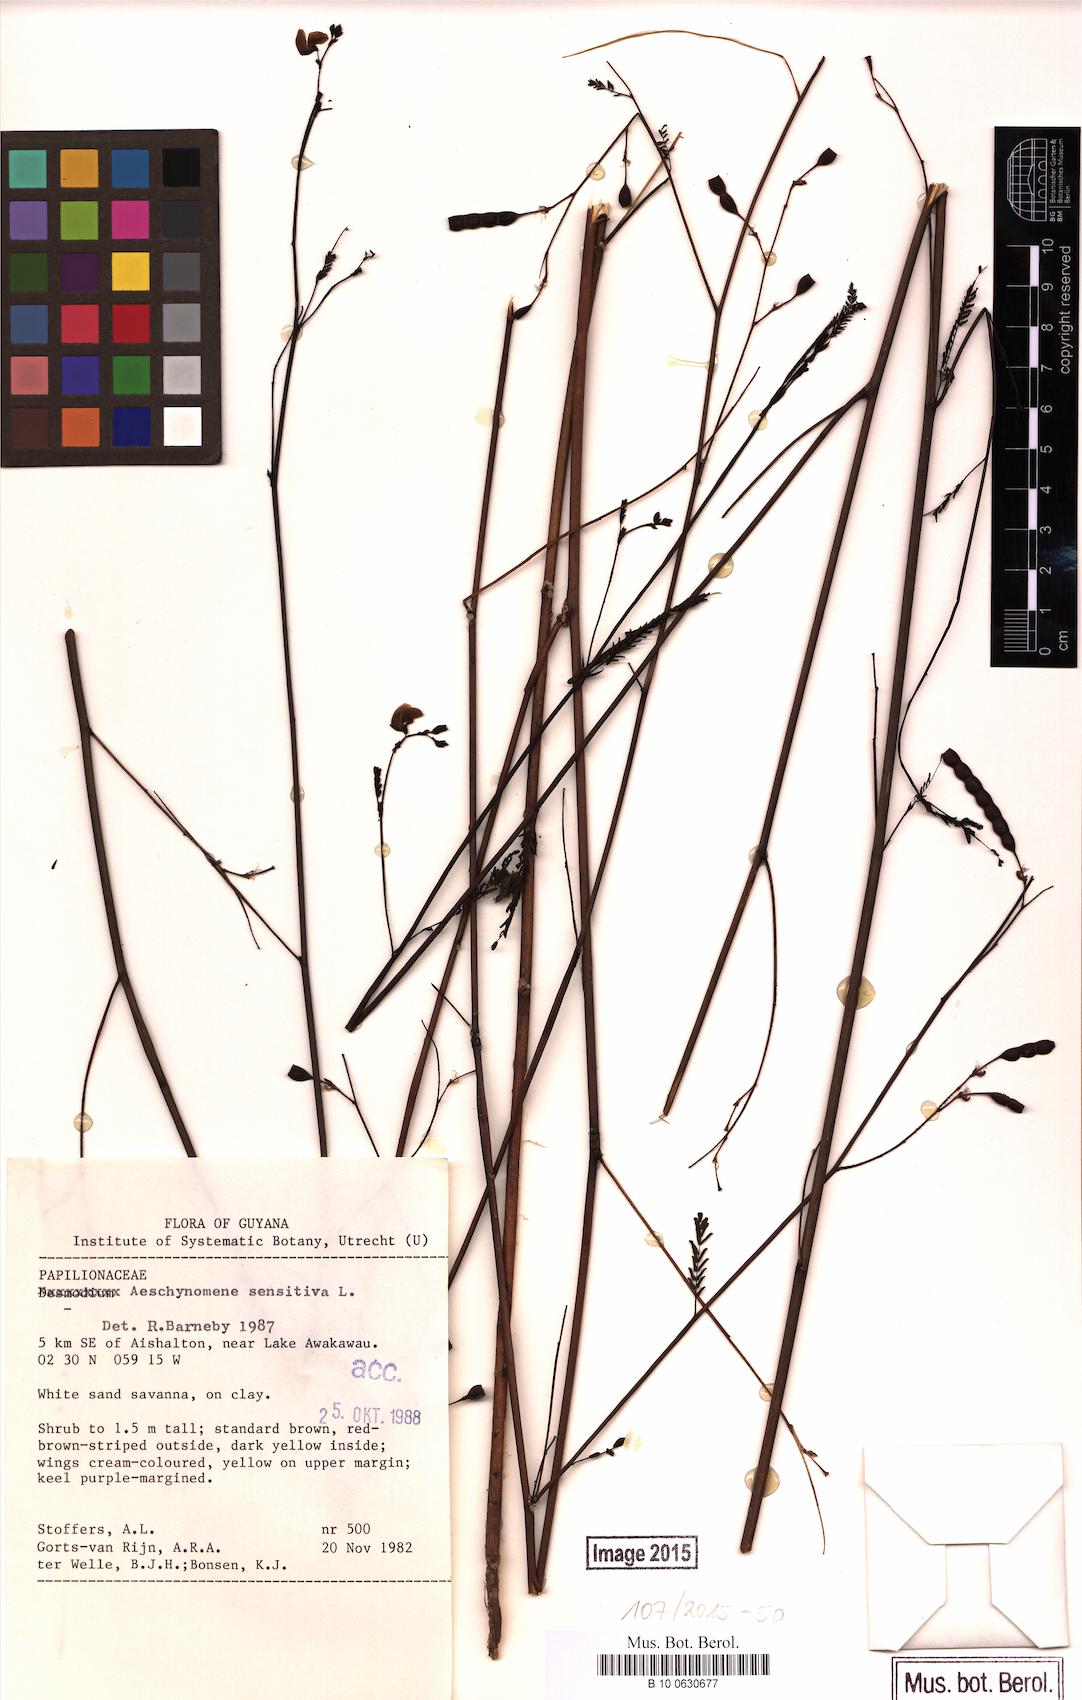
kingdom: Plantae
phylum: Tracheophyta
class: Magnoliopsida
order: Fabales
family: Fabaceae
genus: Aeschynomene
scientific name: Aeschynomene sensitiva
